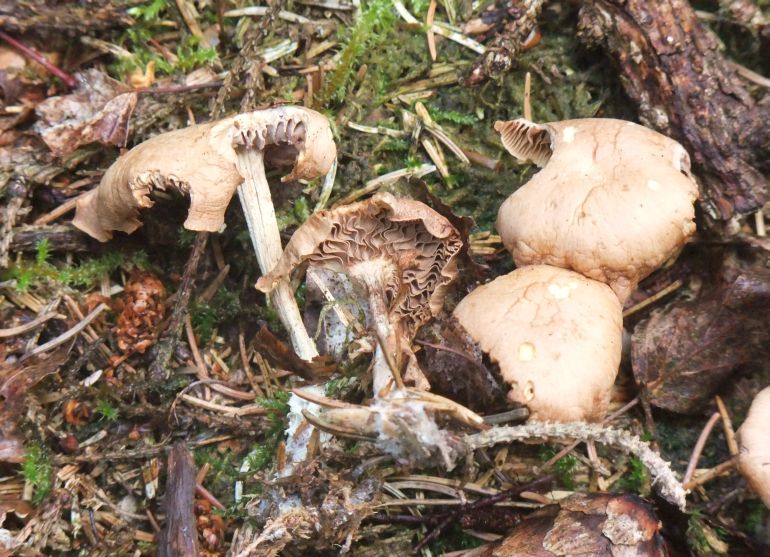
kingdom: Fungi
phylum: Basidiomycota
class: Agaricomycetes
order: Agaricales
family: Omphalotaceae
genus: Collybiopsis
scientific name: Collybiopsis peronata
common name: bestøvlet fladhat
